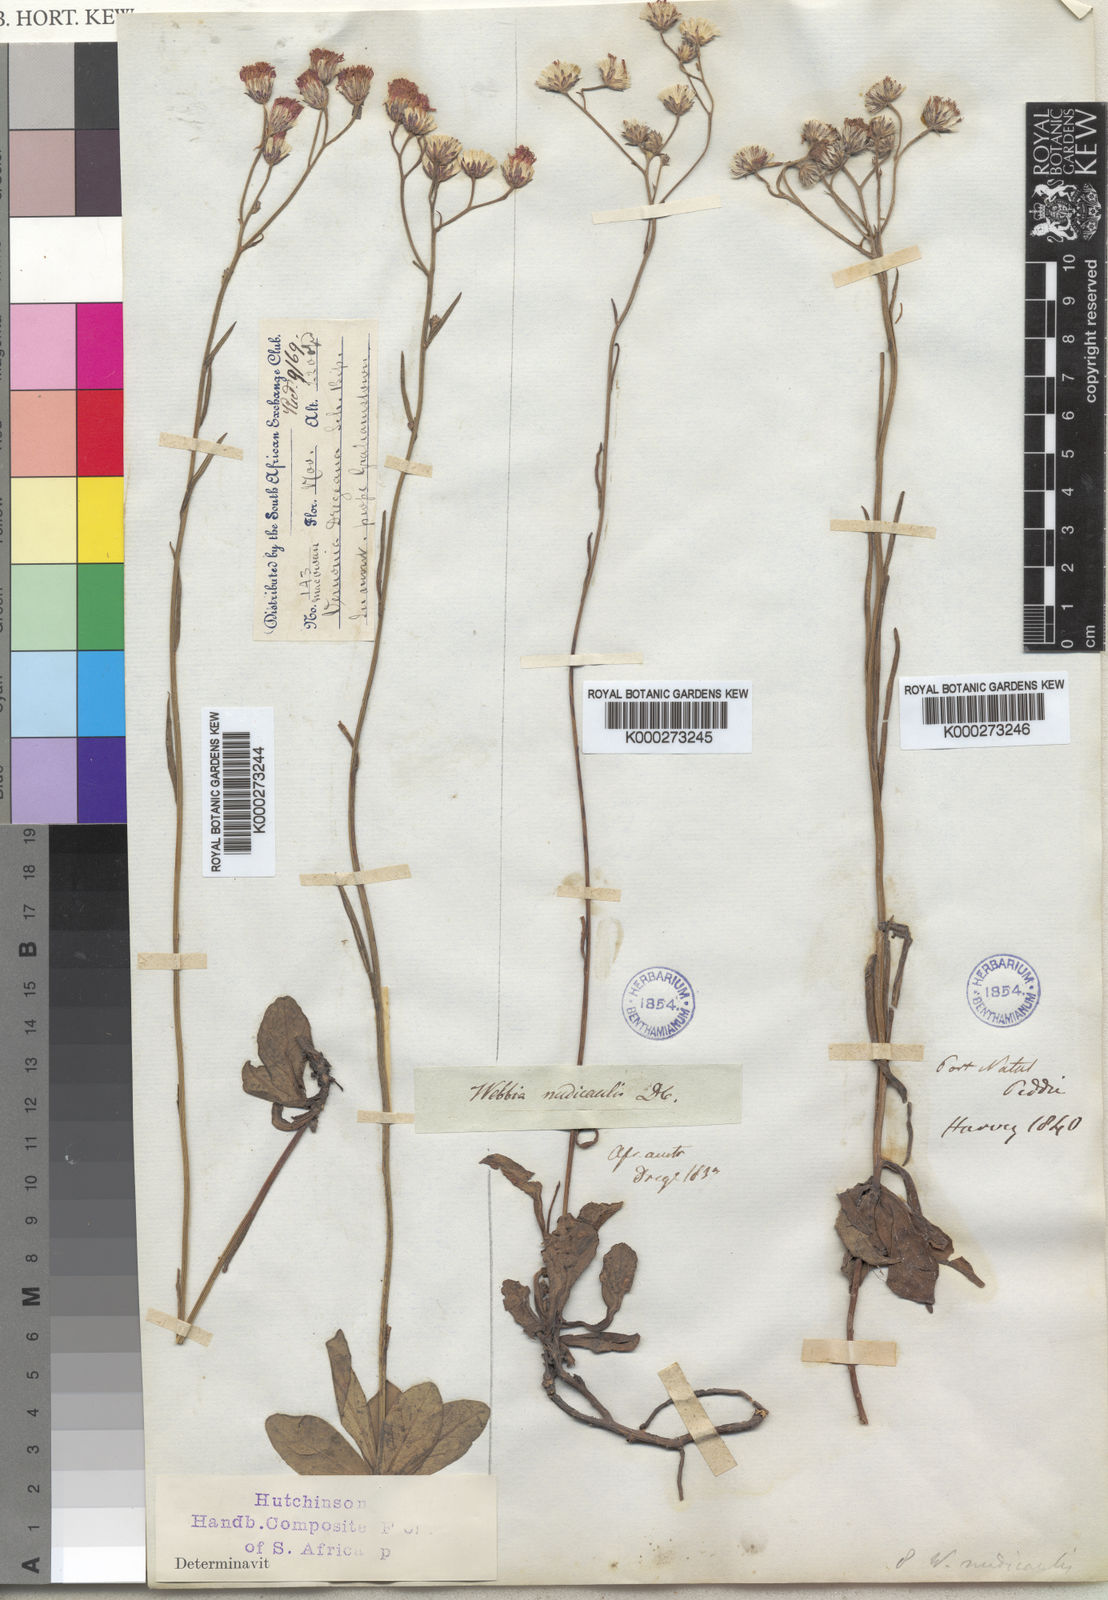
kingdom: Plantae
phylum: Tracheophyta
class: Magnoliopsida
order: Asterales
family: Asteraceae
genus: Vernonia
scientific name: Vernonia
